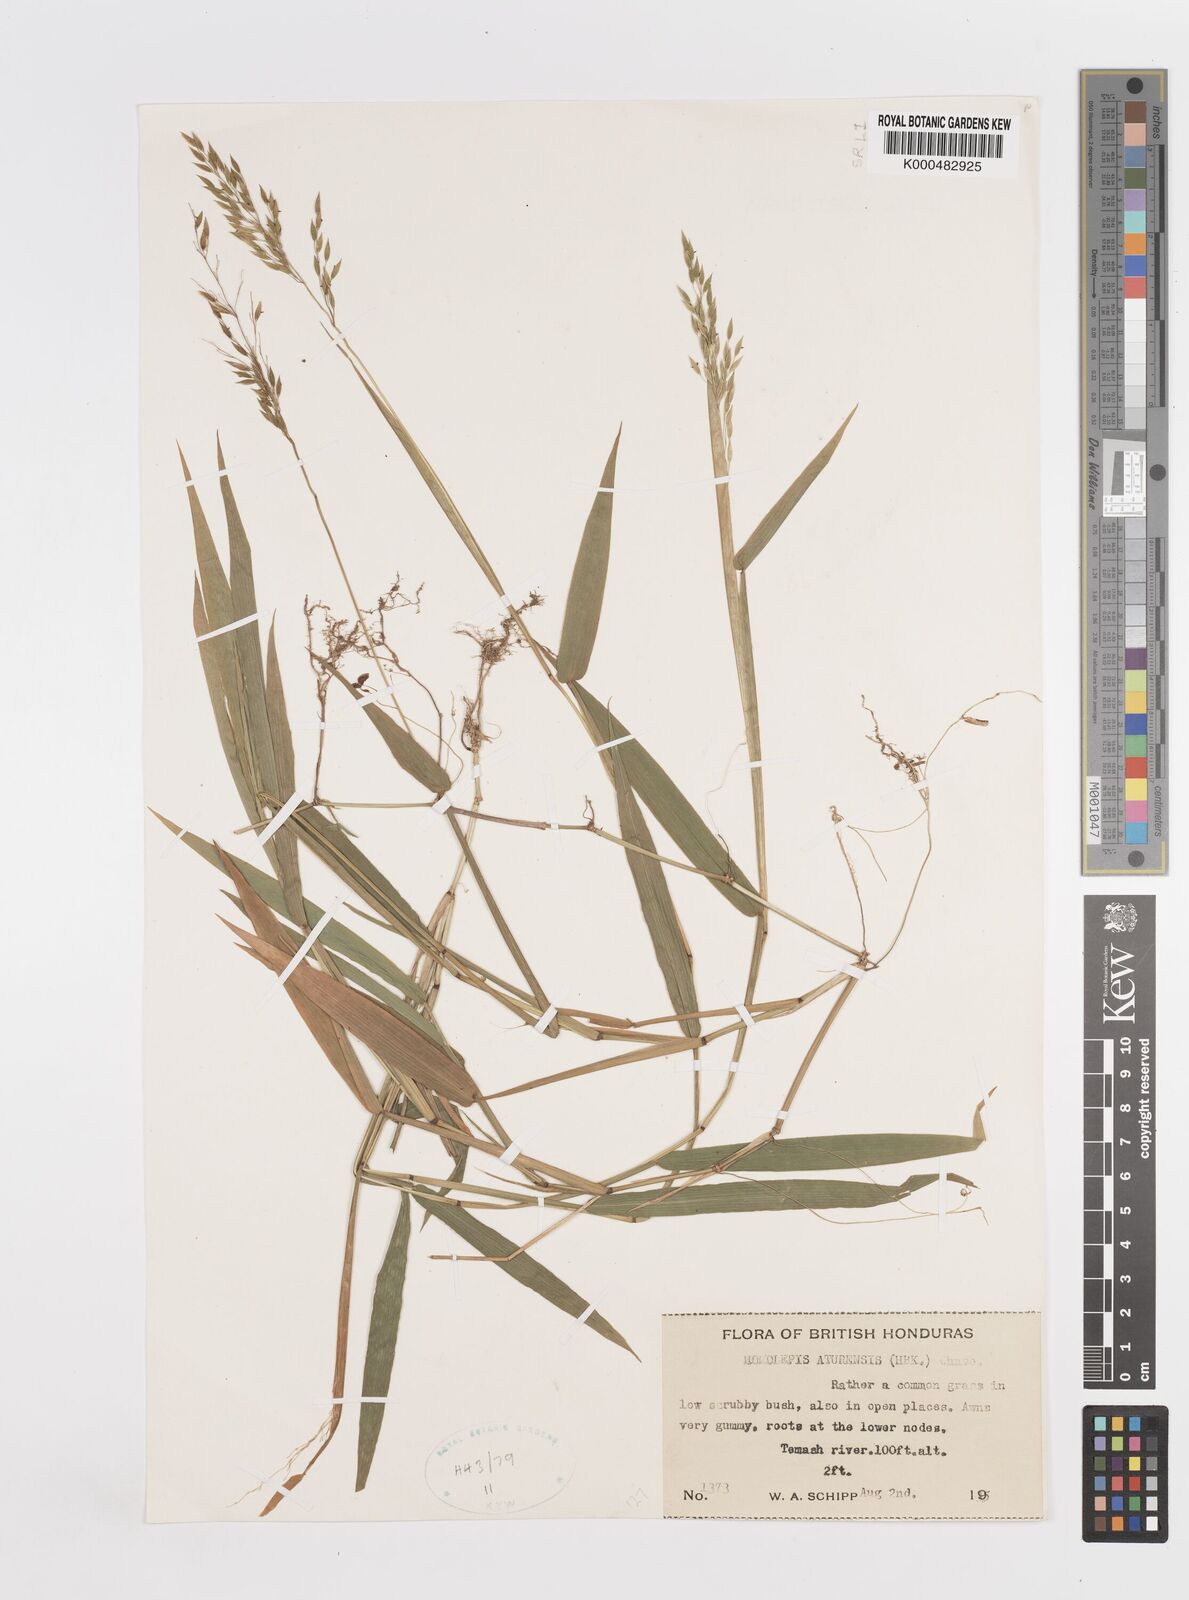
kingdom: Plantae
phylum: Tracheophyta
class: Liliopsida
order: Poales
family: Poaceae
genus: Homolepis
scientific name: Homolepis aturensis
